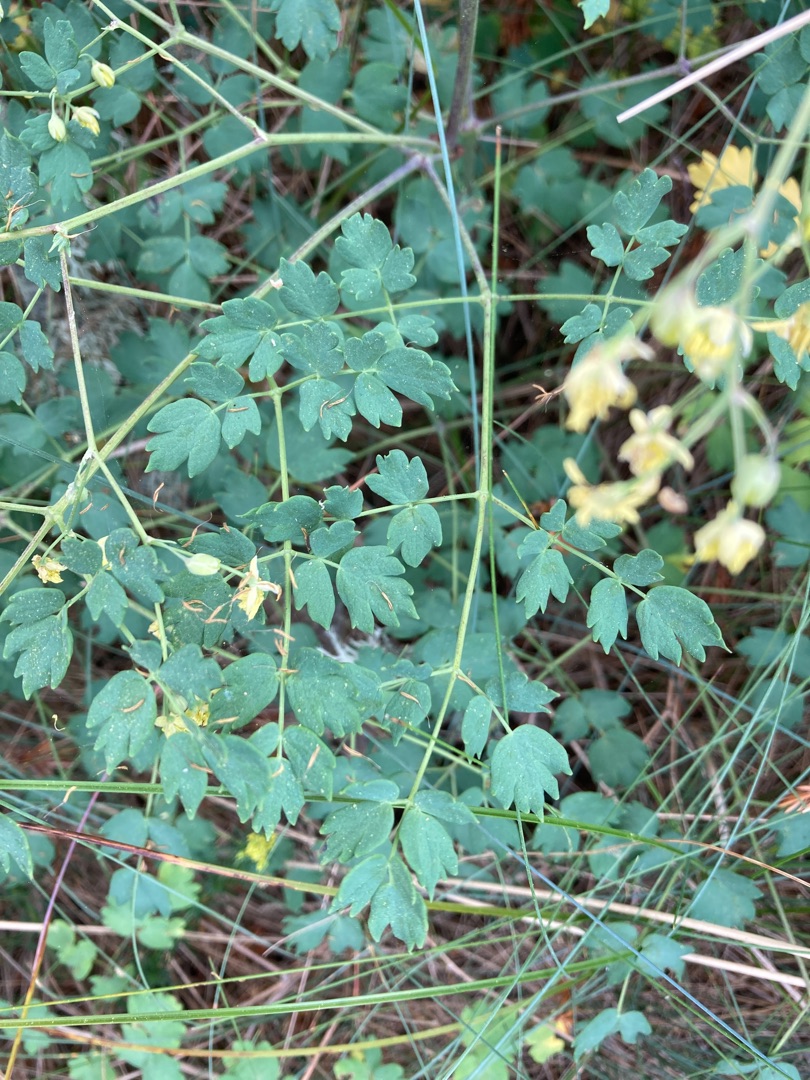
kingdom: Plantae
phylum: Tracheophyta
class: Magnoliopsida
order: Ranunculales
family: Ranunculaceae
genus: Thalictrum
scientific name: Thalictrum minus
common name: Liden frøstjerne
